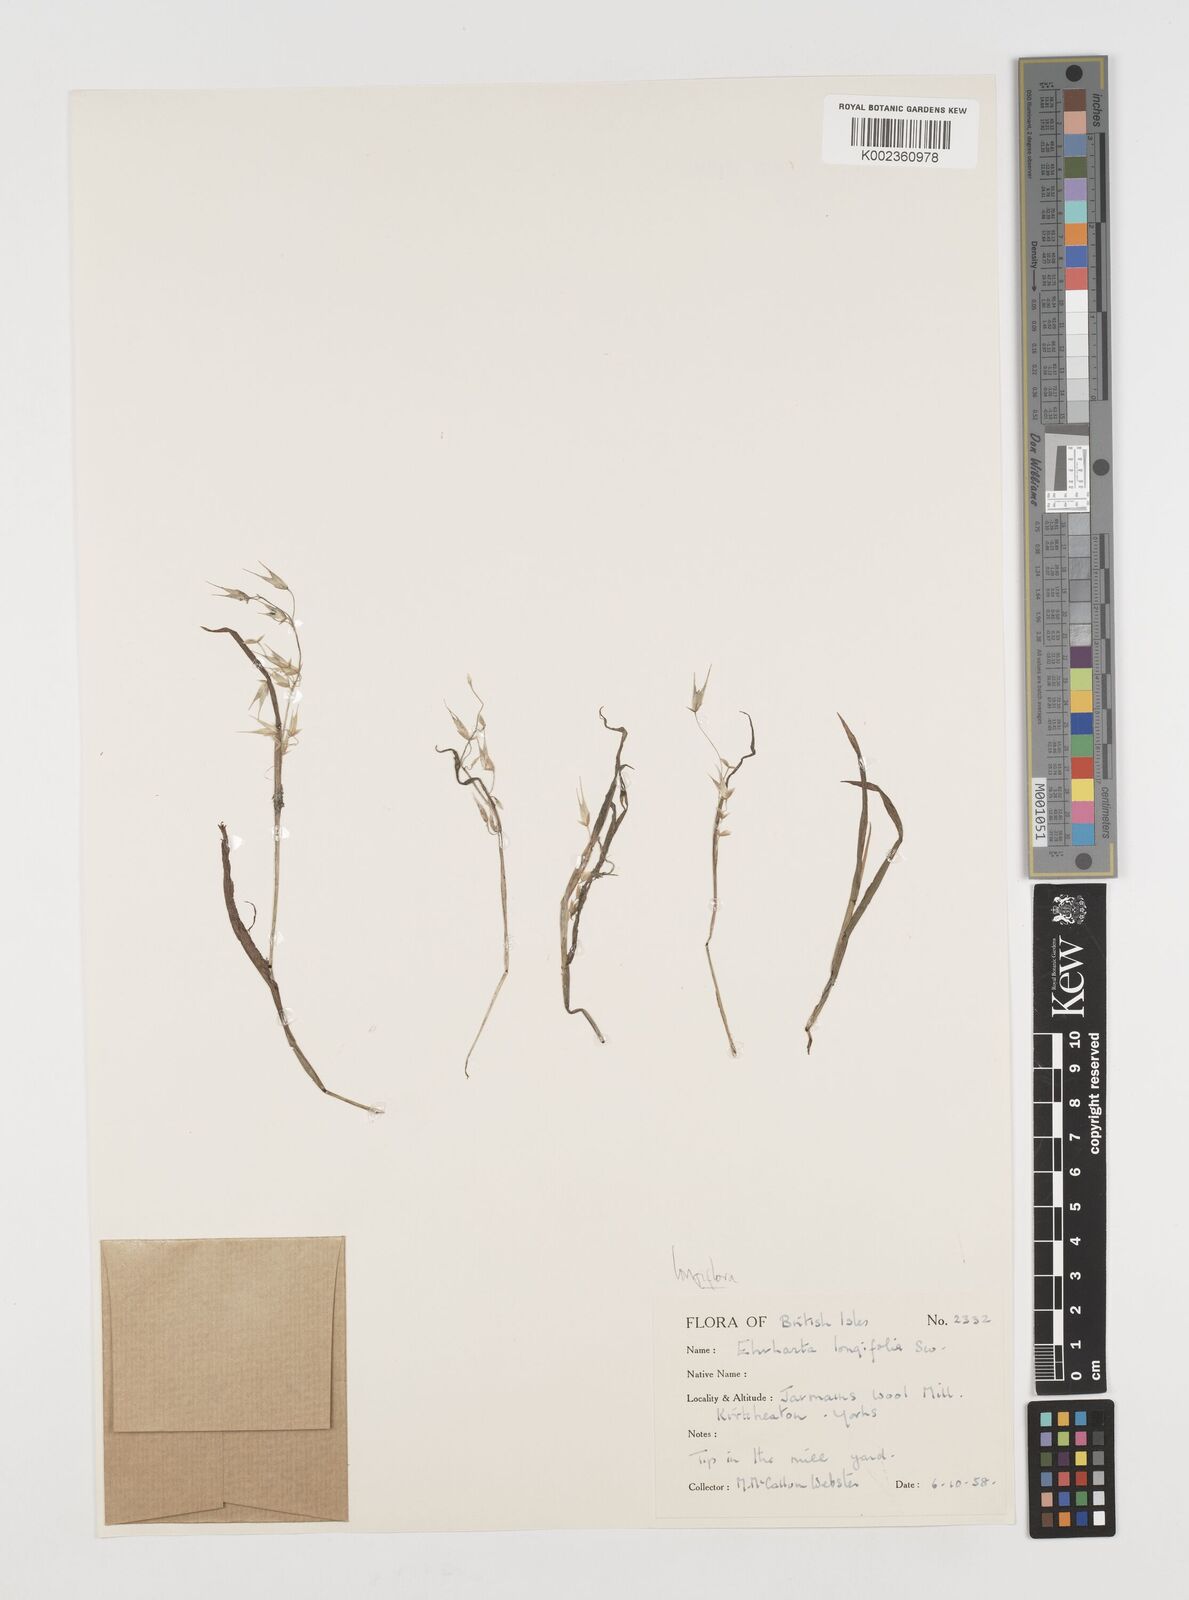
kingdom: Plantae
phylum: Tracheophyta
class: Liliopsida
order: Poales
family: Poaceae
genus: Ehrharta
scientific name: Ehrharta longiflora
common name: Longflowered veldtgrass
